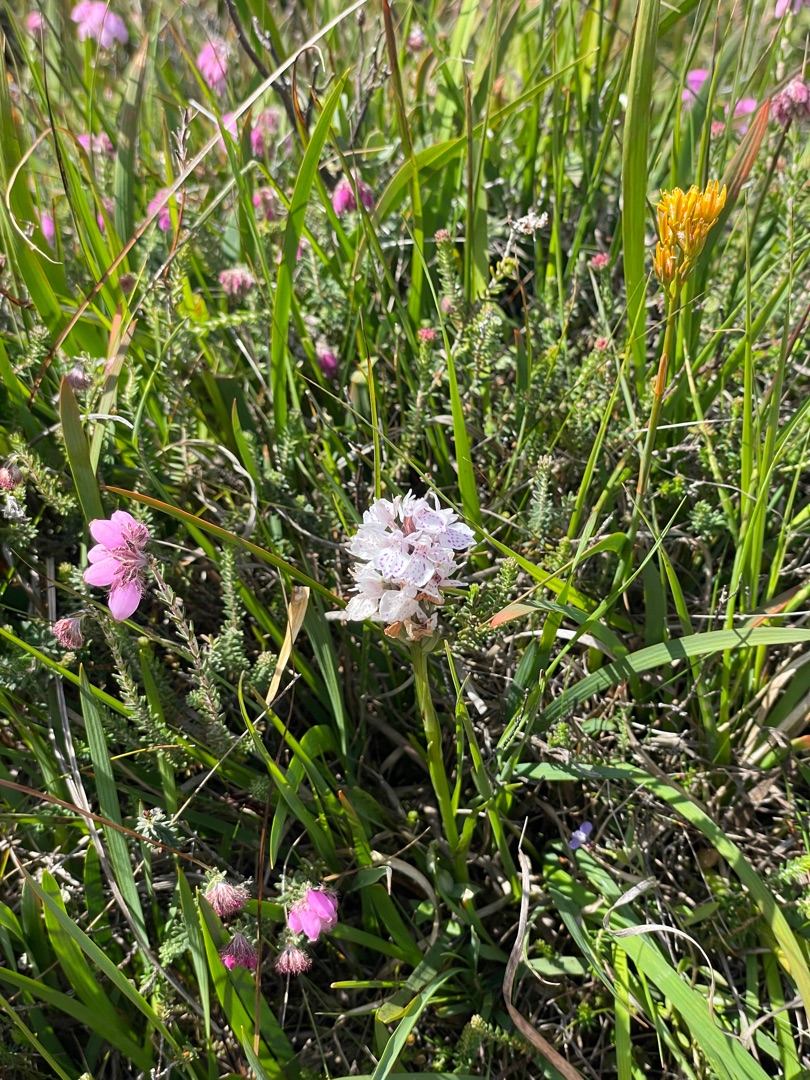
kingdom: Plantae
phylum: Tracheophyta
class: Liliopsida
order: Asparagales
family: Orchidaceae
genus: Dactylorhiza
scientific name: Dactylorhiza maculata
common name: Plettet gøgeurt (underart)
